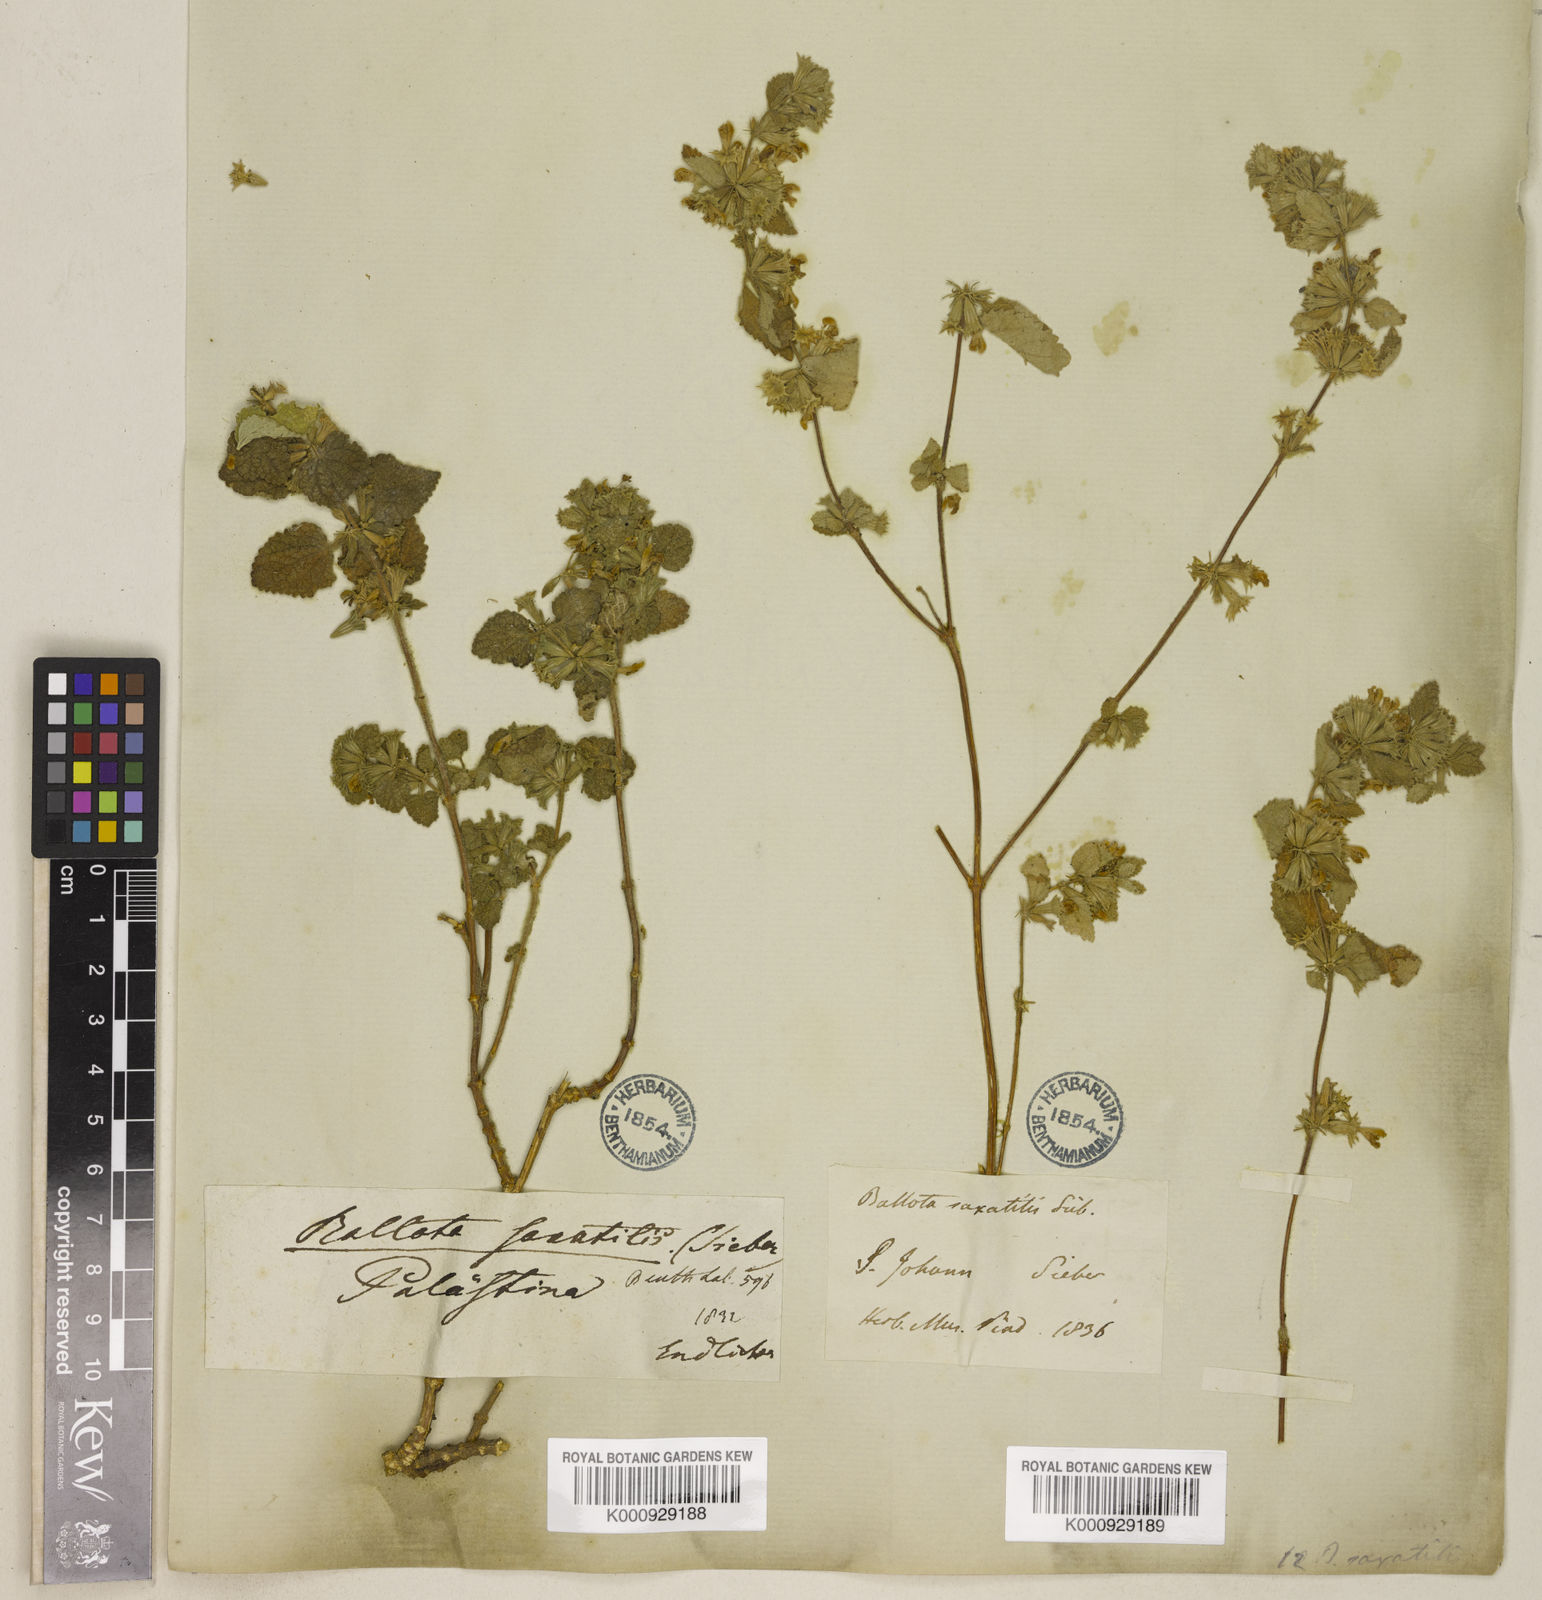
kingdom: Plantae
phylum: Tracheophyta
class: Magnoliopsida
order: Lamiales
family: Lamiaceae
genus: Ballota
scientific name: Ballota saxatilis
